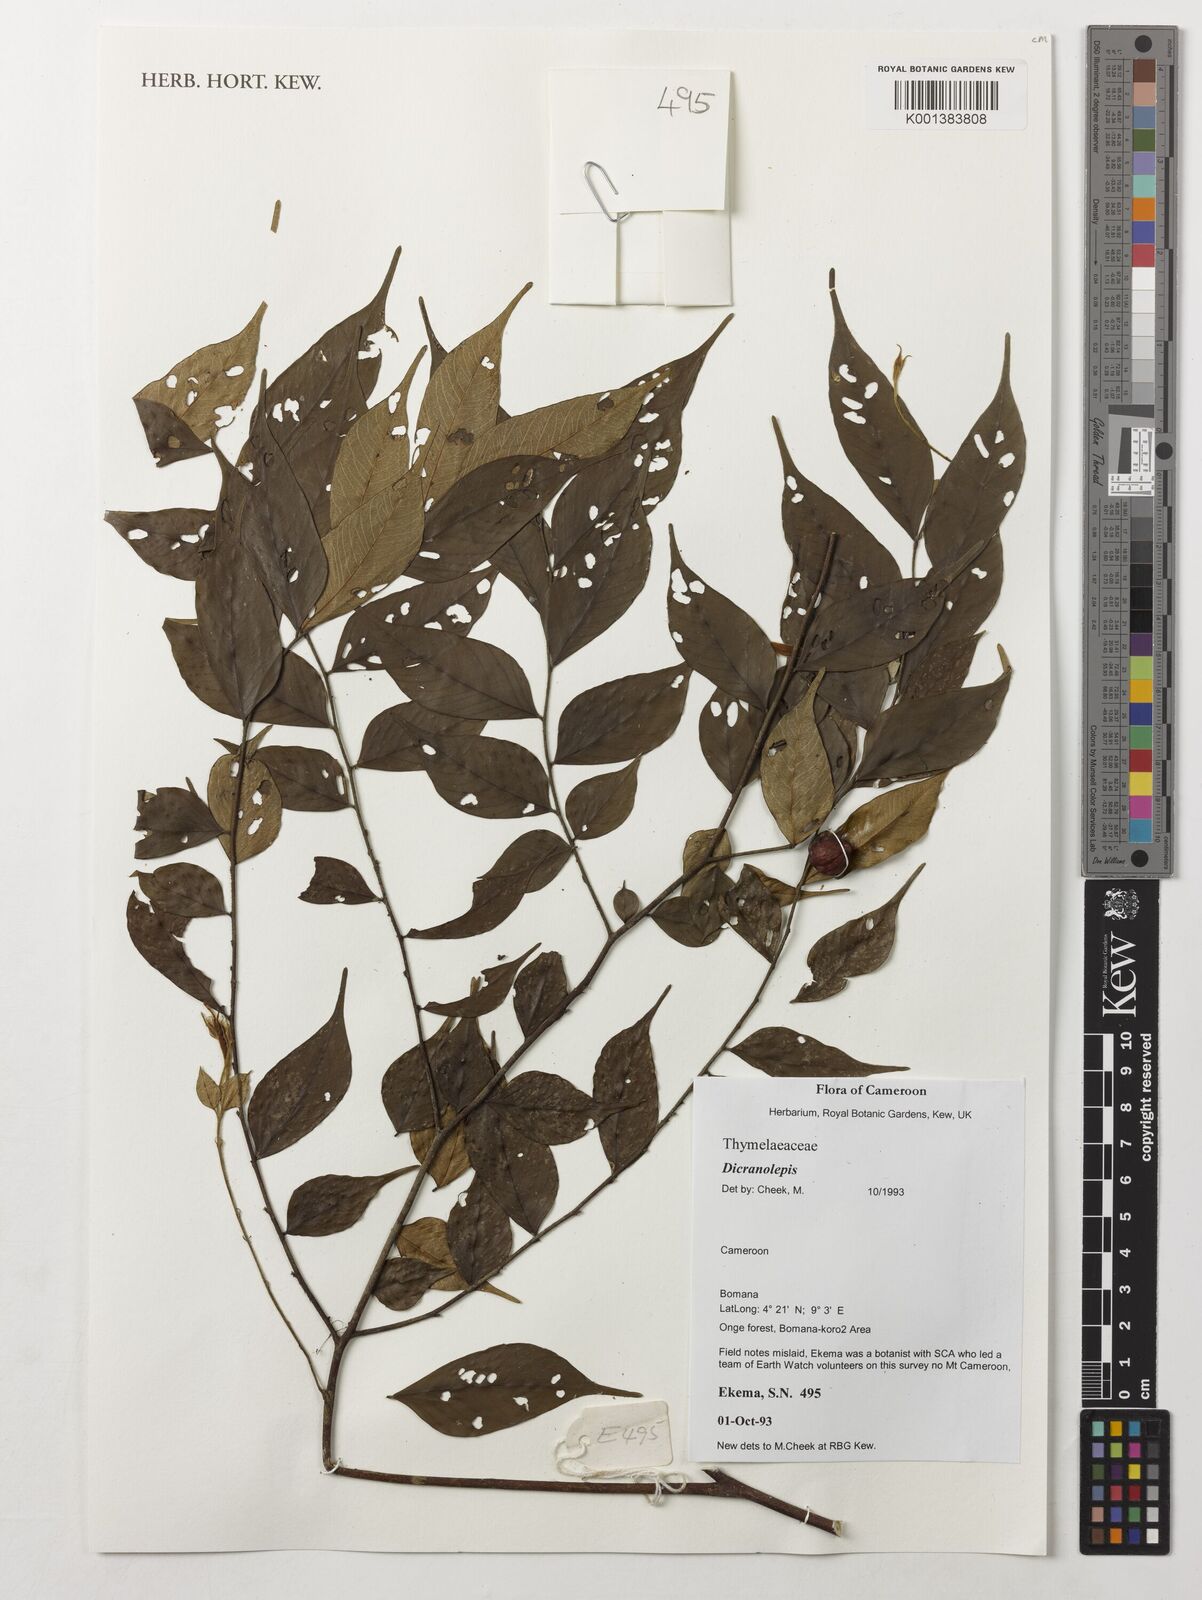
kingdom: Plantae
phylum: Tracheophyta
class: Magnoliopsida
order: Malvales
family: Thymelaeaceae
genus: Dicranolepis
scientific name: Dicranolepis
